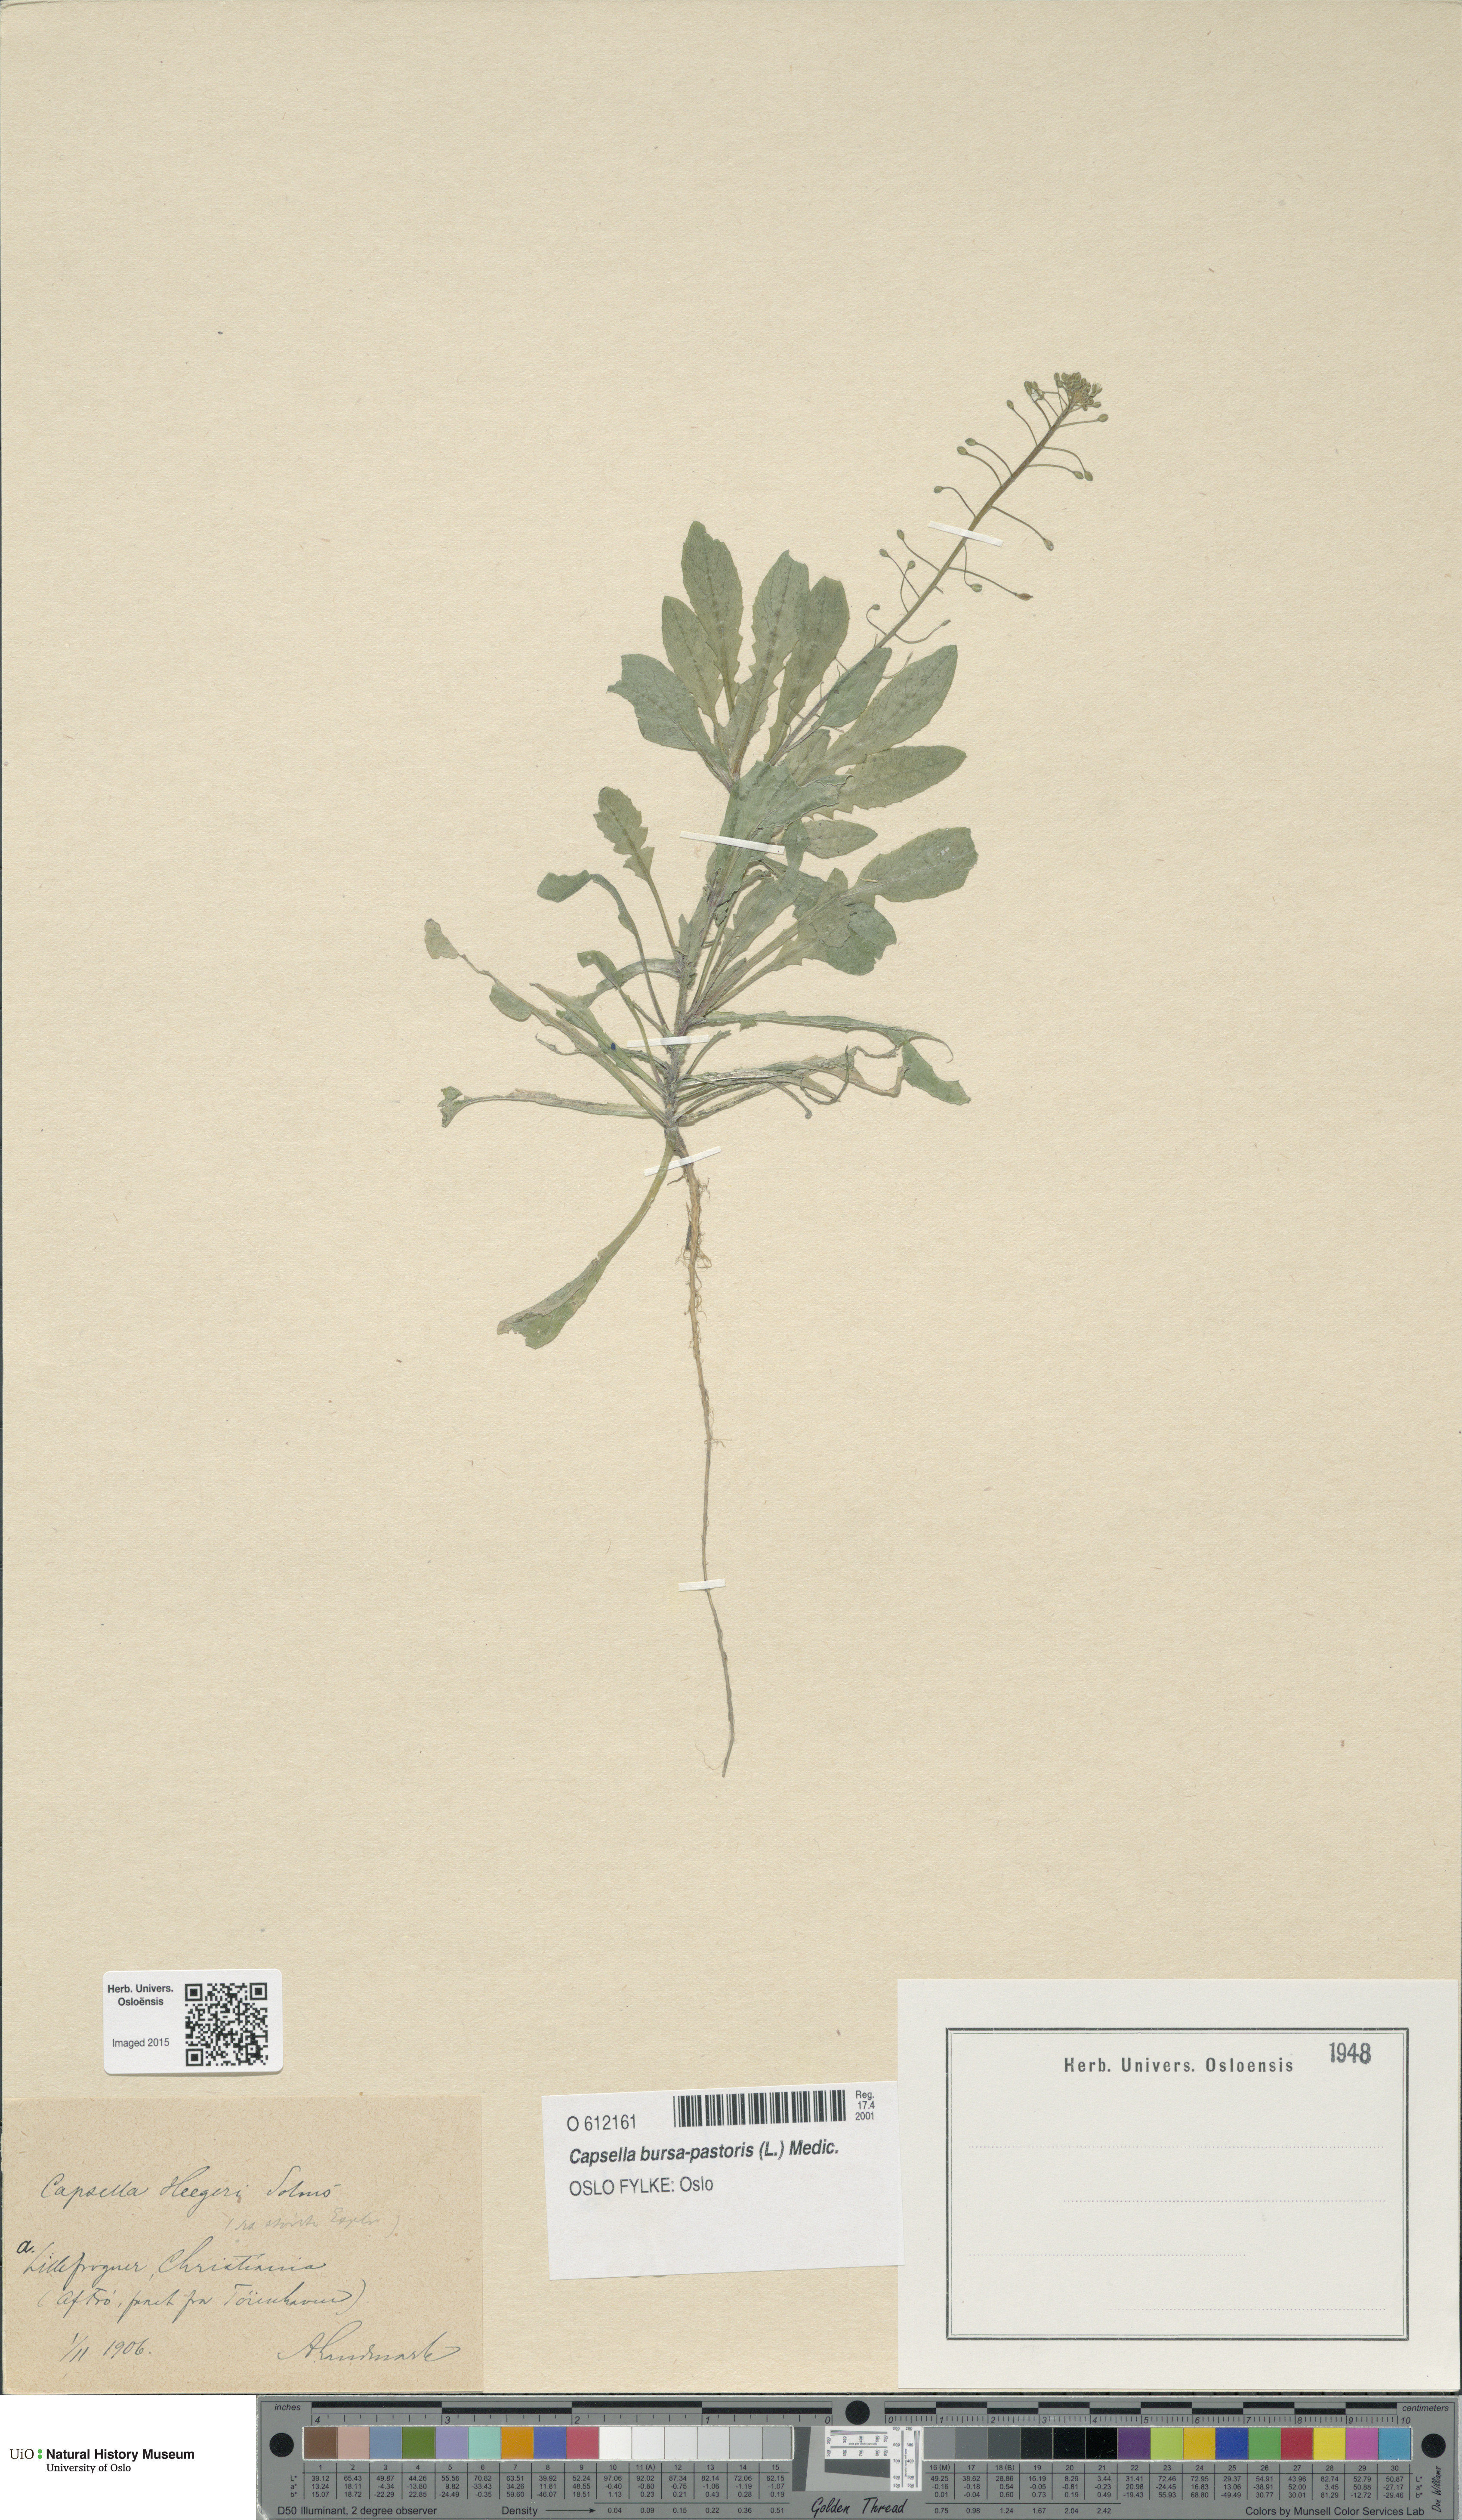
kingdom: Plantae
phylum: Tracheophyta
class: Magnoliopsida
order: Brassicales
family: Brassicaceae
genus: Capsella
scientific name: Capsella bursa-pastoris
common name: Shepherd's purse
